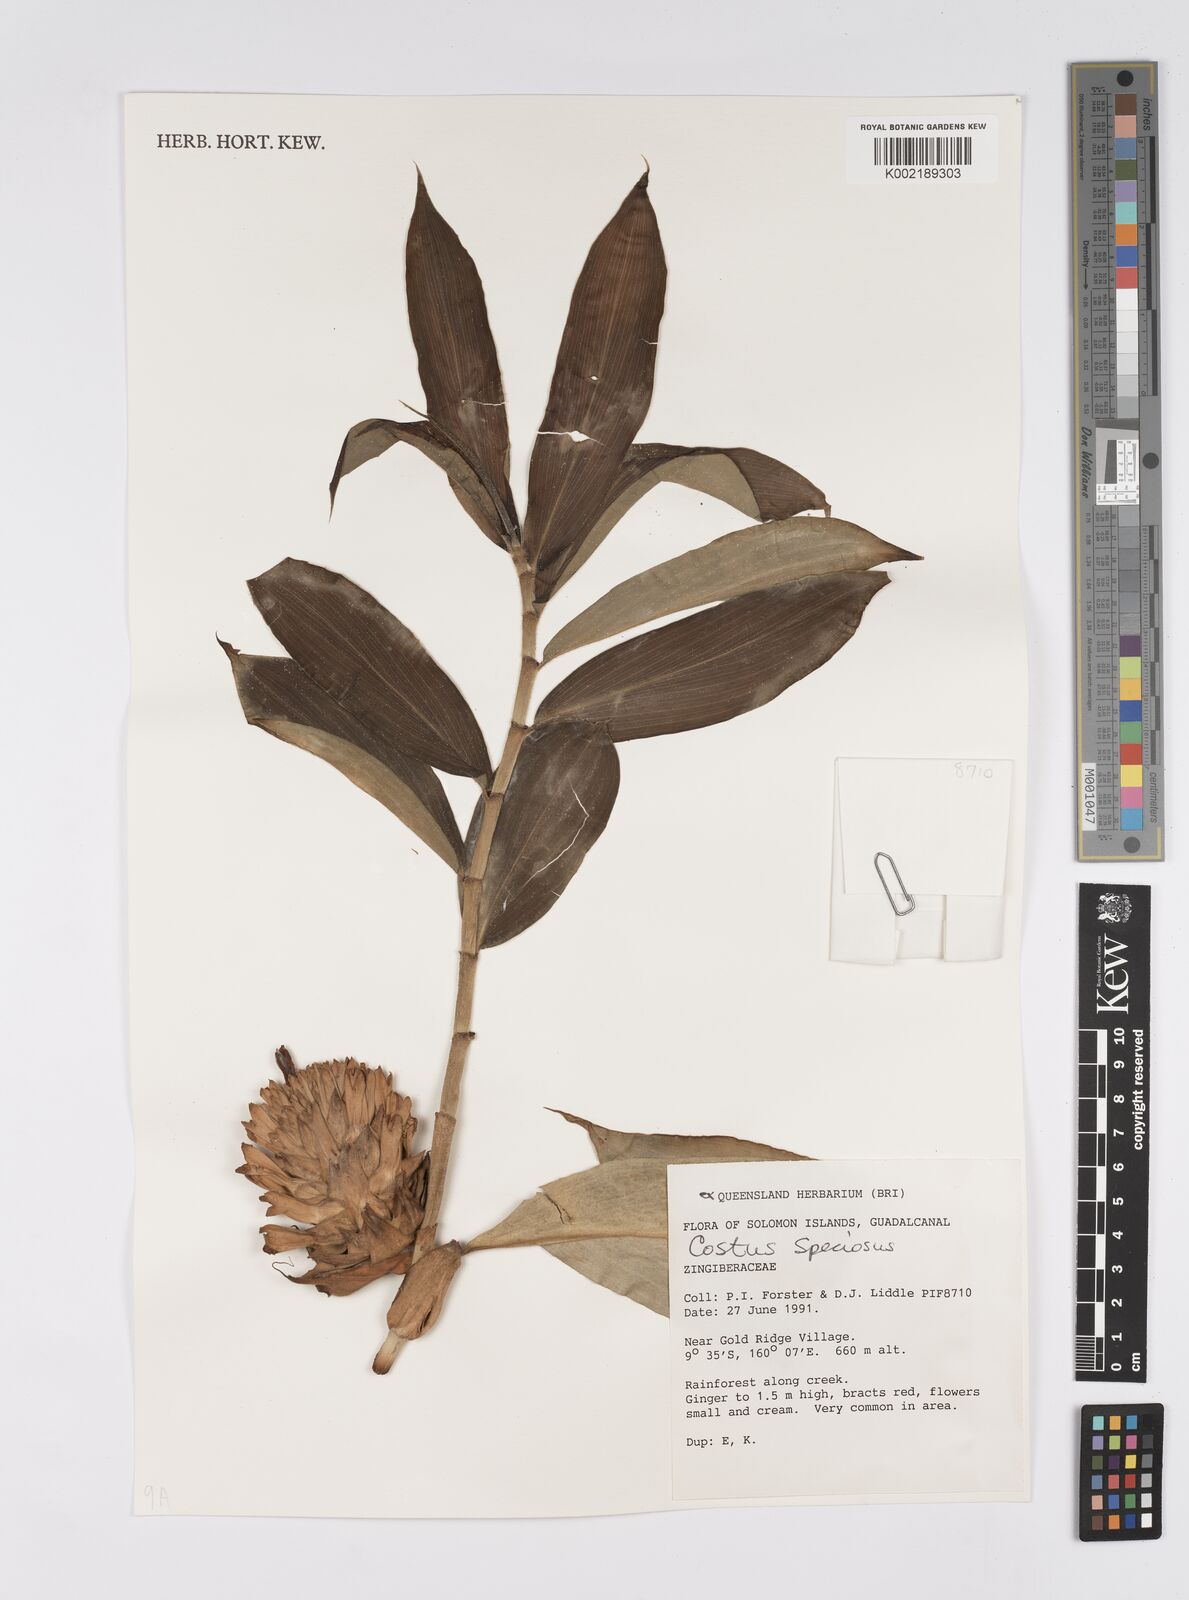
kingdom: Plantae
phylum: Tracheophyta
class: Liliopsida
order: Zingiberales
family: Costaceae
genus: Hellenia
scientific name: Hellenia speciosa
